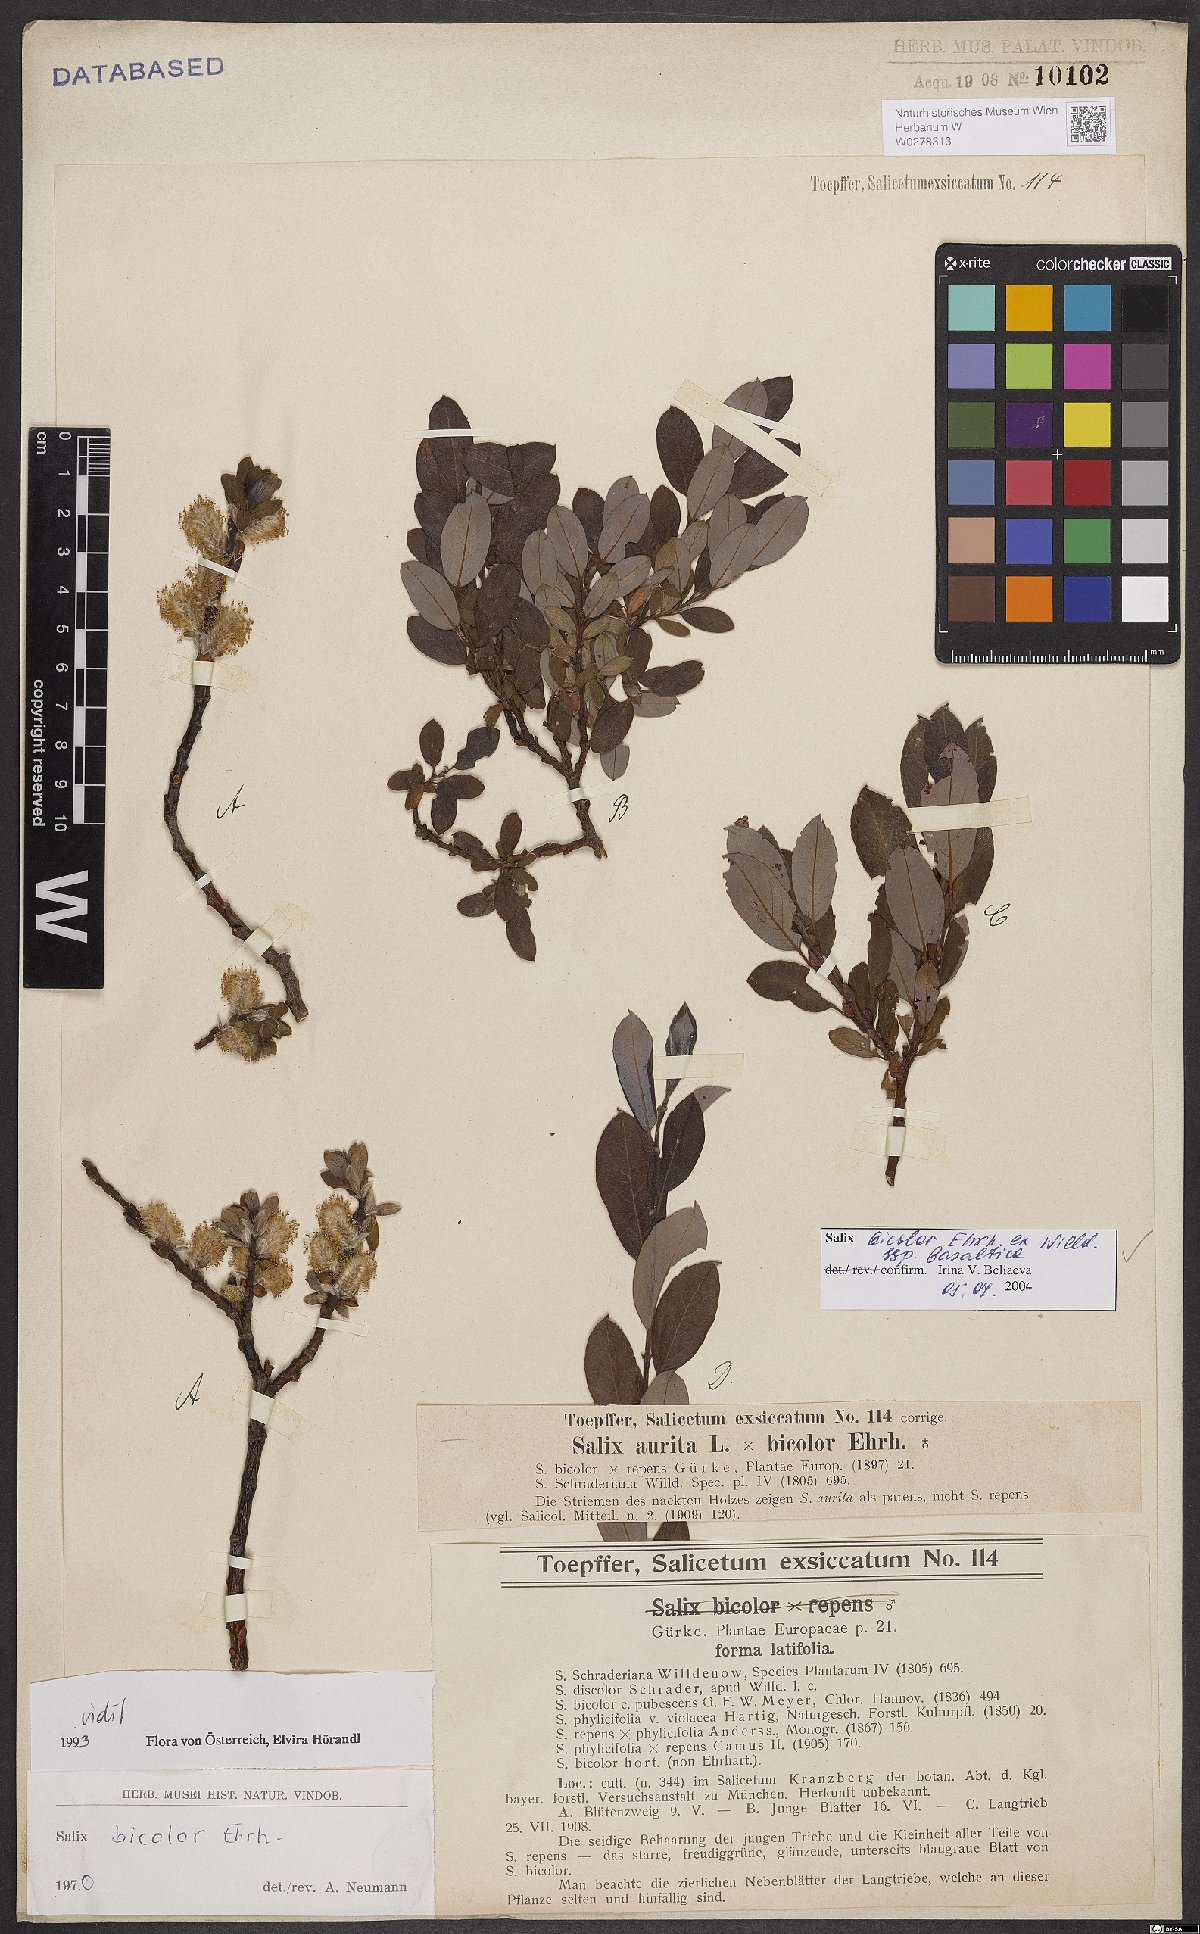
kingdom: Plantae
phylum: Tracheophyta
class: Magnoliopsida
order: Malpighiales
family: Salicaceae
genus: Salix
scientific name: Salix basaltica
